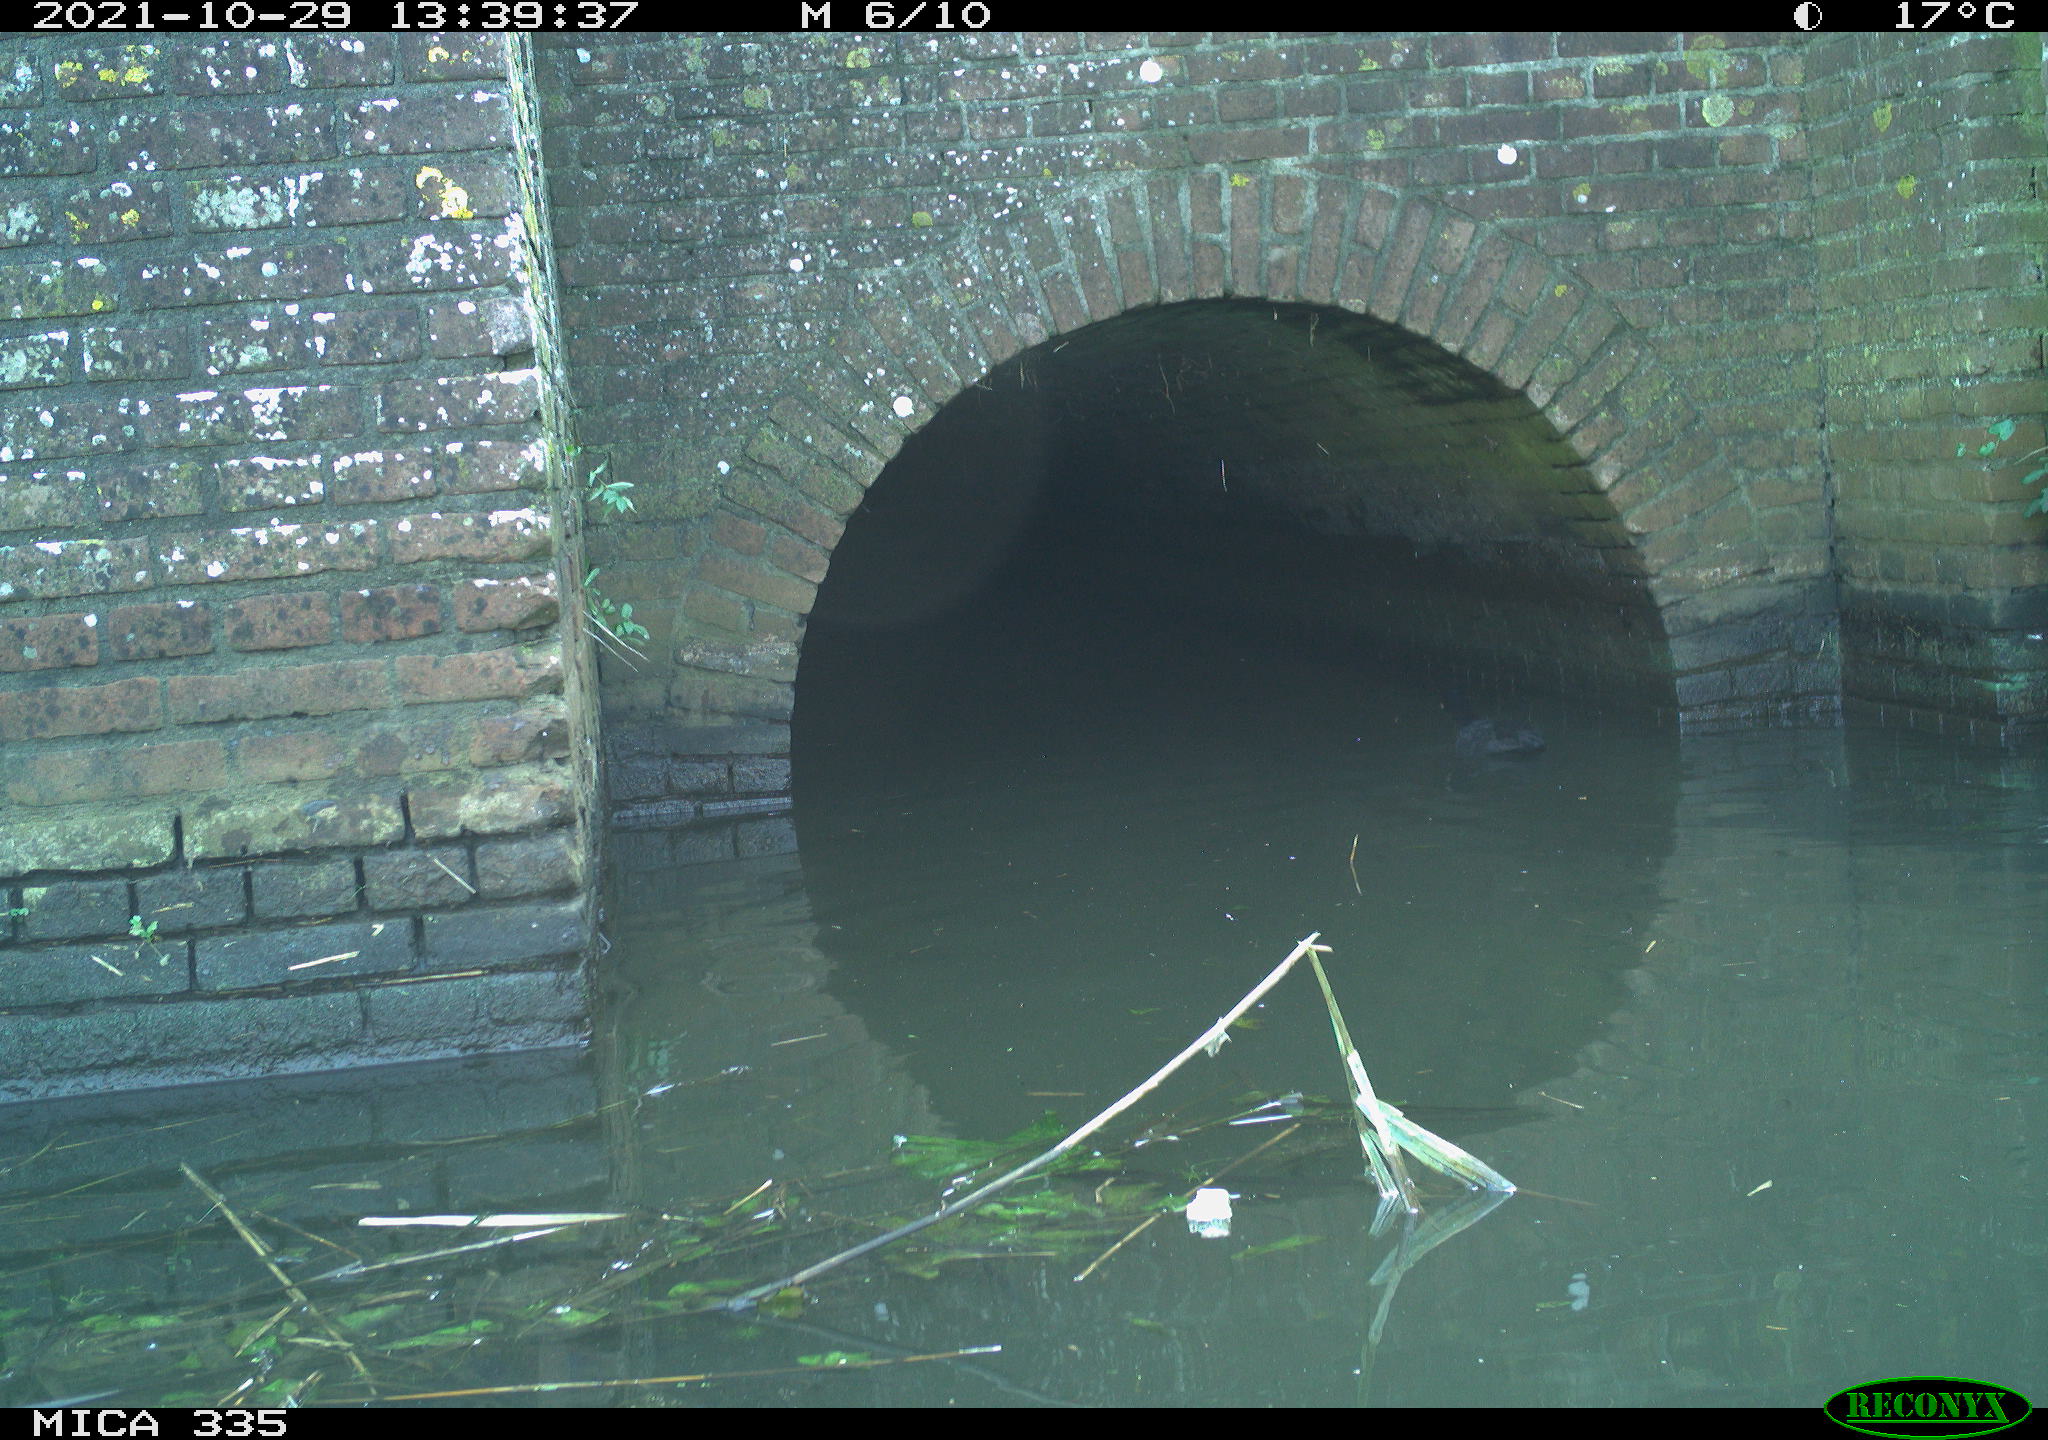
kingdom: Animalia
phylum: Chordata
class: Aves
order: Gruiformes
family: Rallidae
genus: Fulica
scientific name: Fulica atra
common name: Eurasian coot
